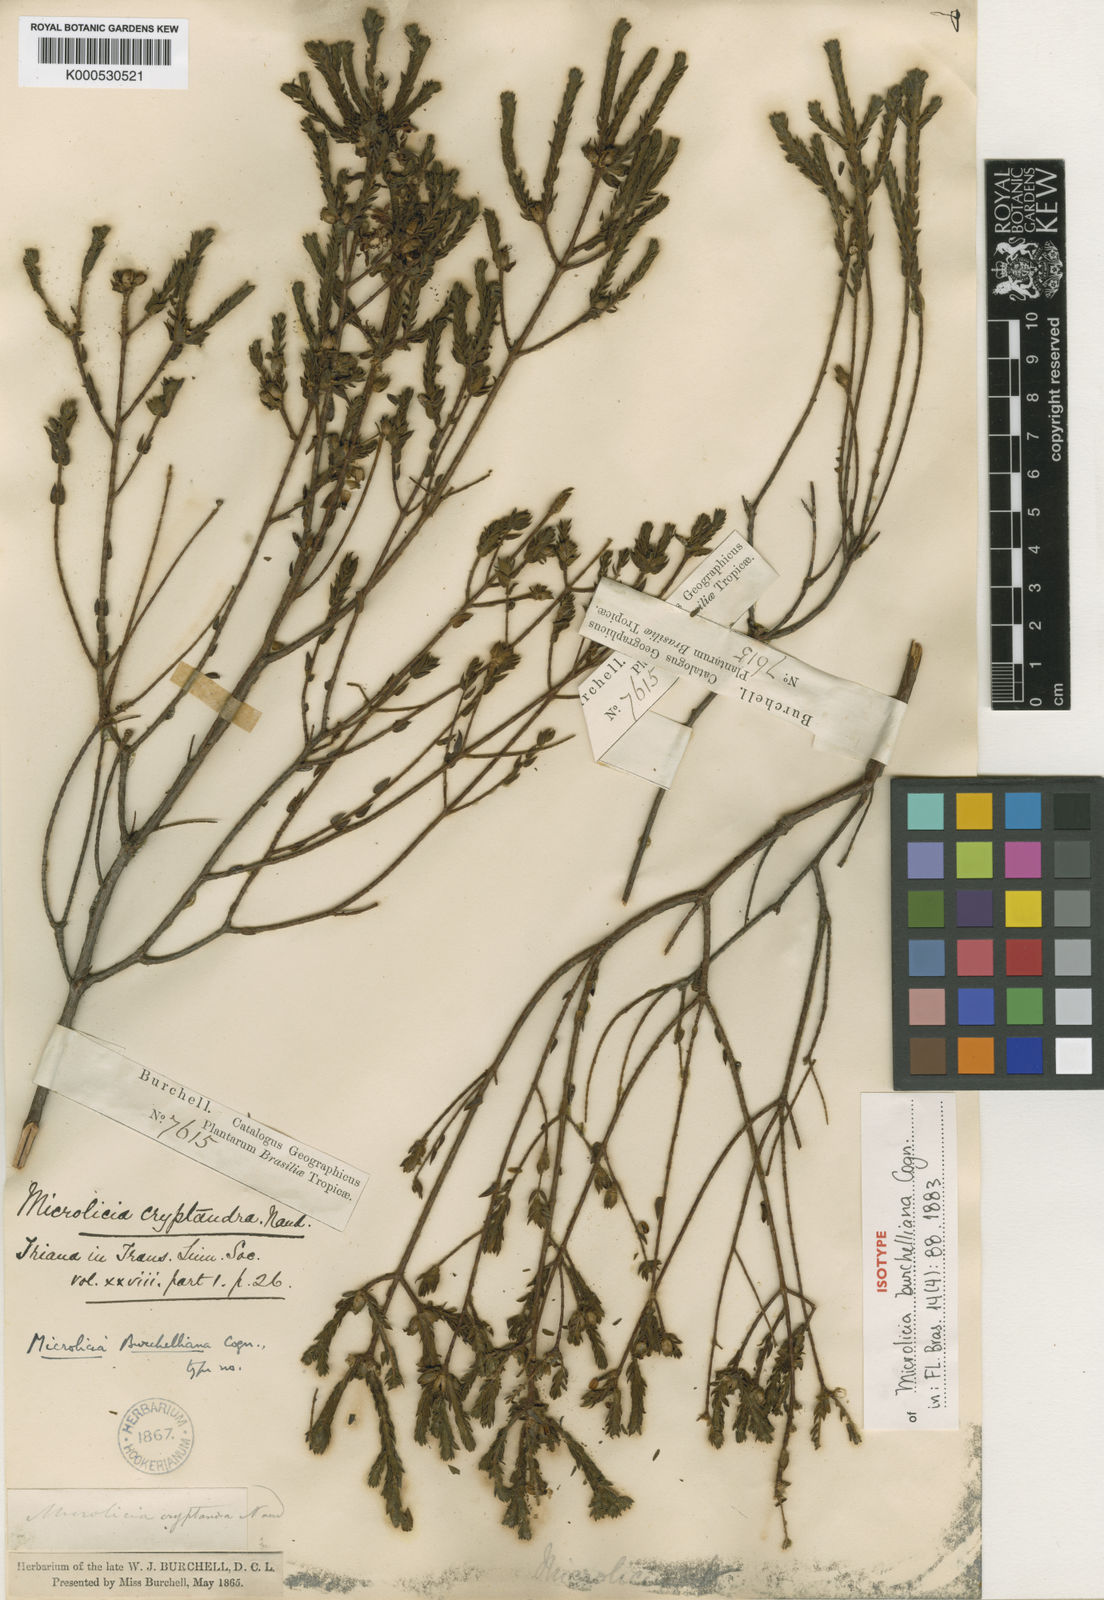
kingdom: Plantae
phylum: Tracheophyta
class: Magnoliopsida
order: Myrtales
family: Melastomataceae
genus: Microlicia
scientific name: Microlicia cryptandra
